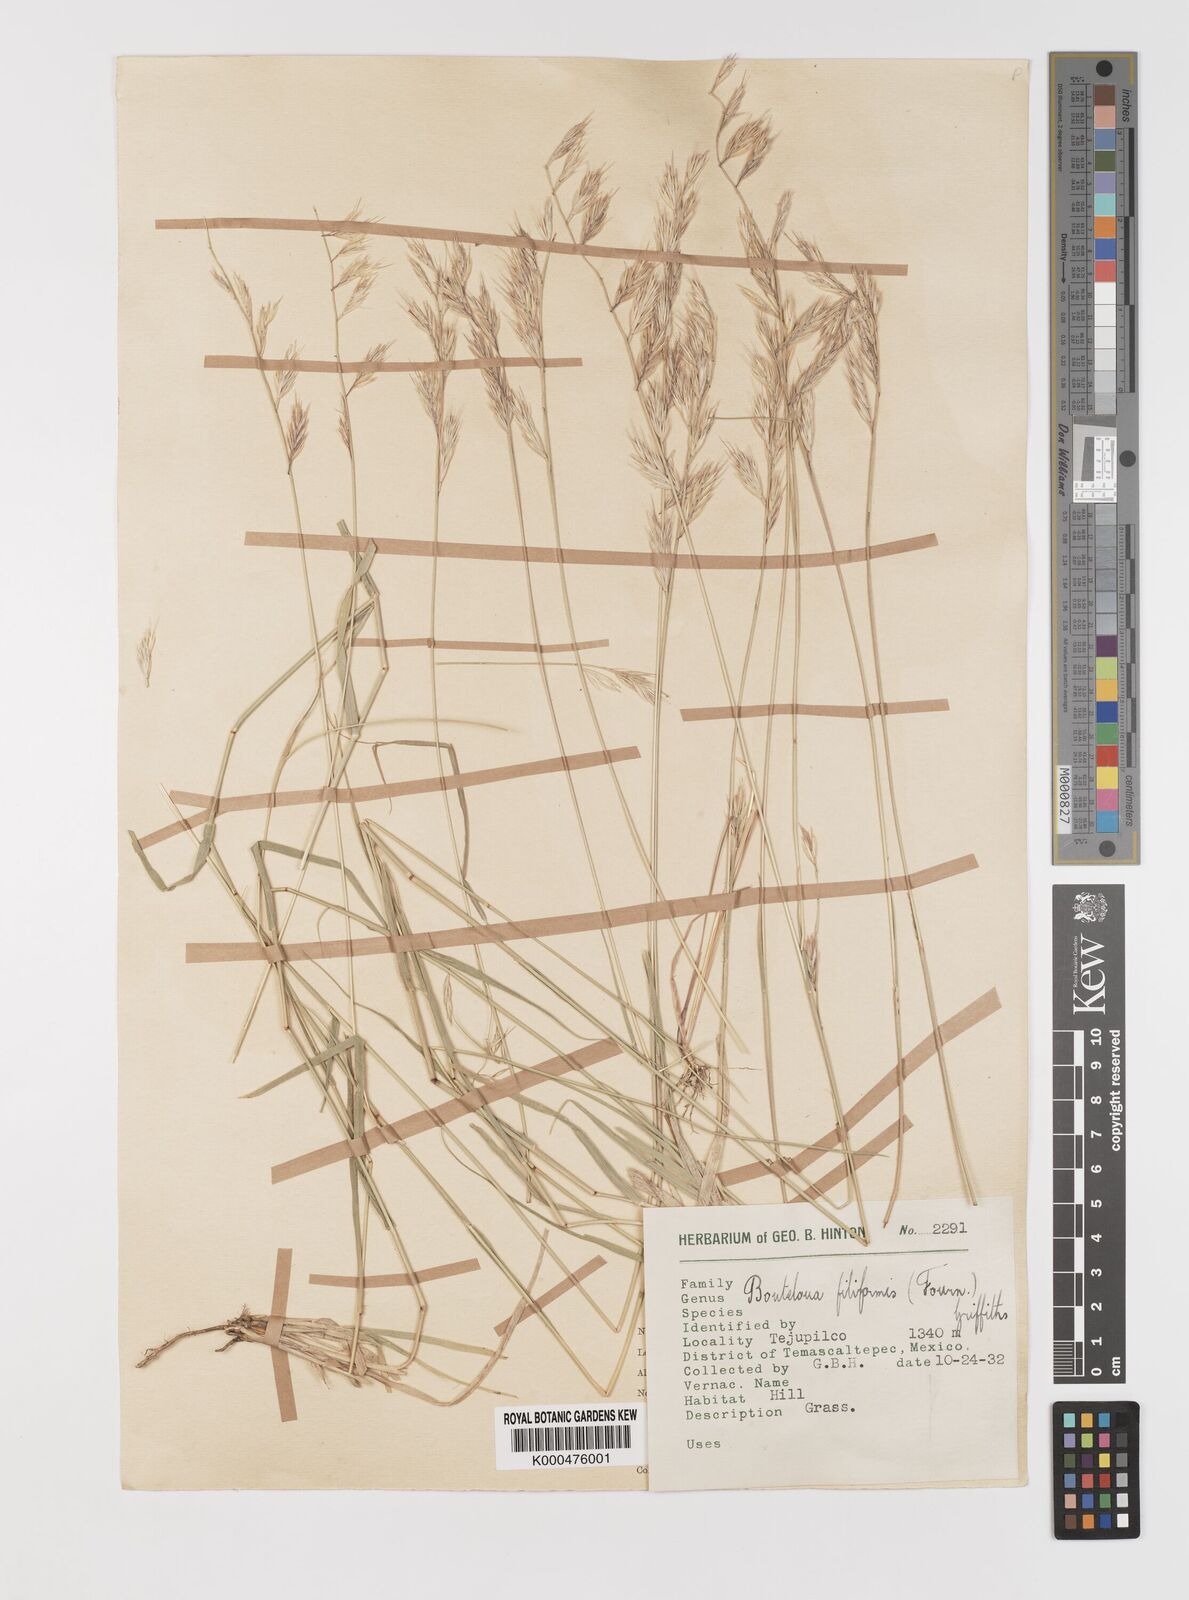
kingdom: Plantae
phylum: Tracheophyta
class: Liliopsida
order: Poales
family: Poaceae
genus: Bouteloua
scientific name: Bouteloua repens
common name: Slender grama
